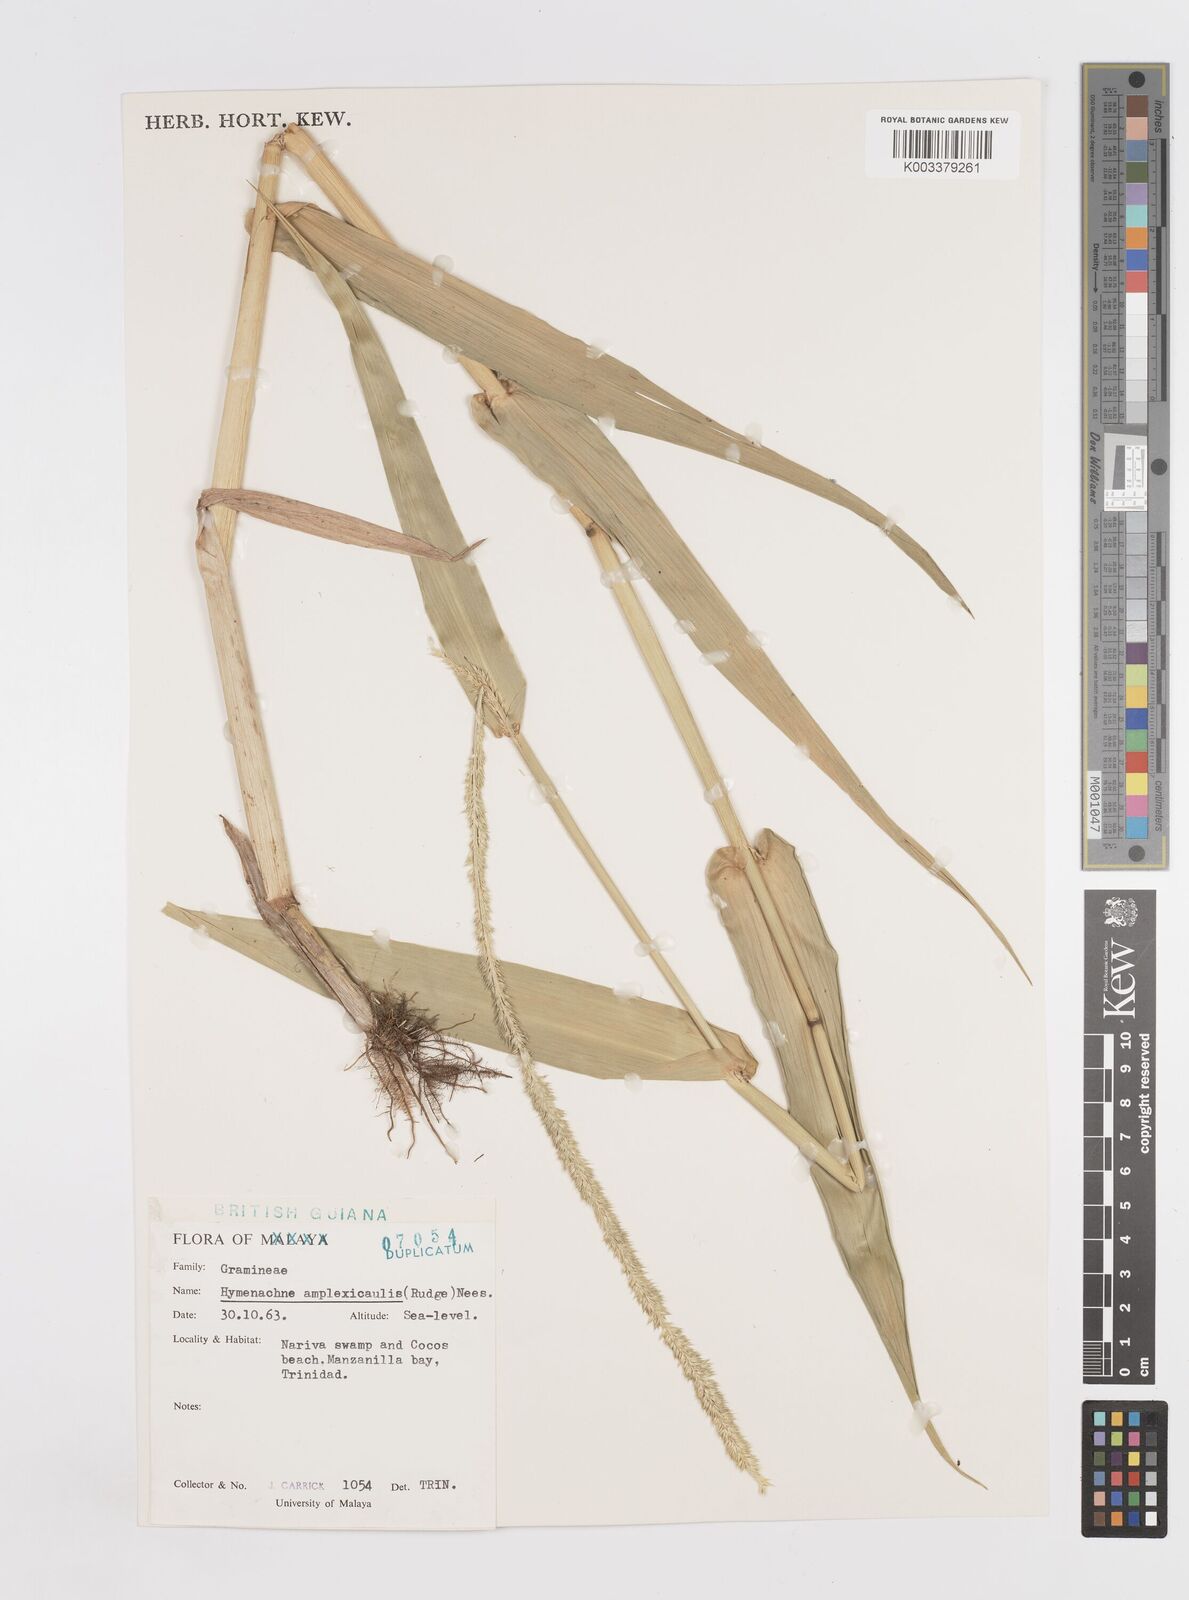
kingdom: Plantae
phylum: Tracheophyta
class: Liliopsida
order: Poales
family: Poaceae
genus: Hymenachne
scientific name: Hymenachne amplexicaulis
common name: Olive hymenachne
